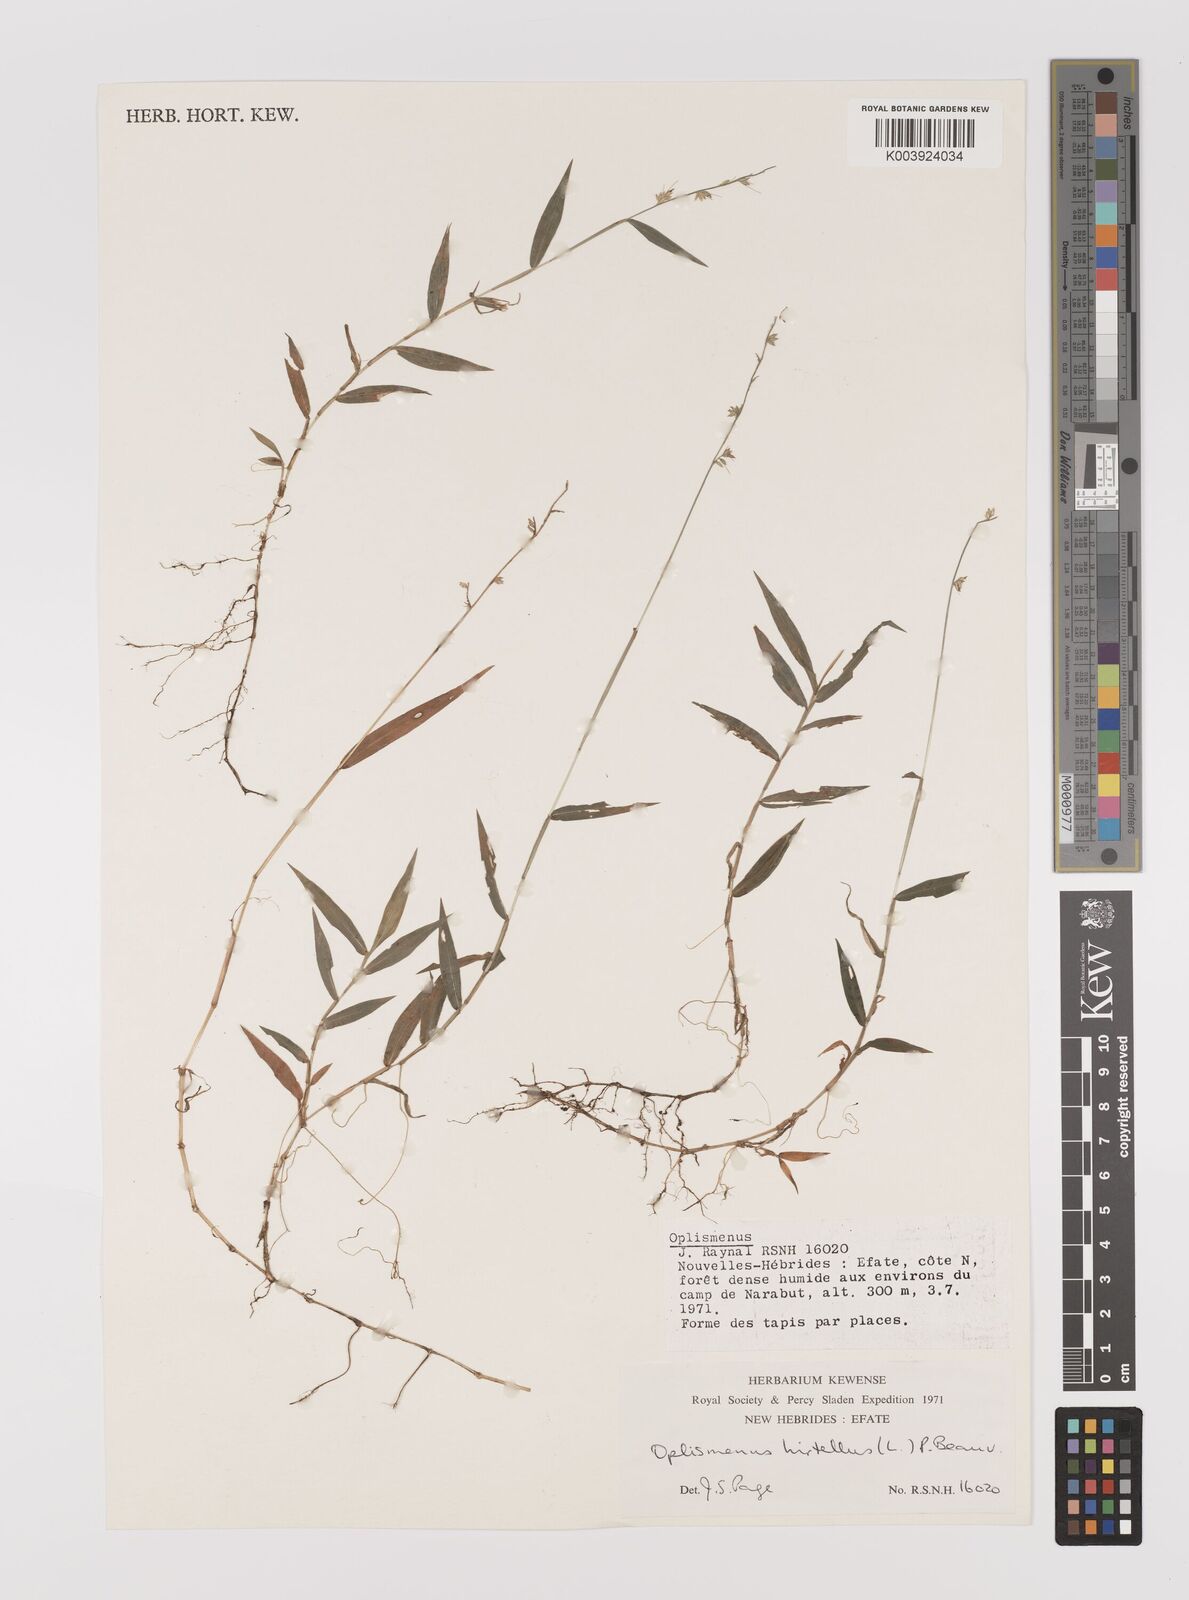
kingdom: Plantae
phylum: Tracheophyta
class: Liliopsida
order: Poales
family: Poaceae
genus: Oplismenus
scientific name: Oplismenus hirtellus
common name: Basketgrass
